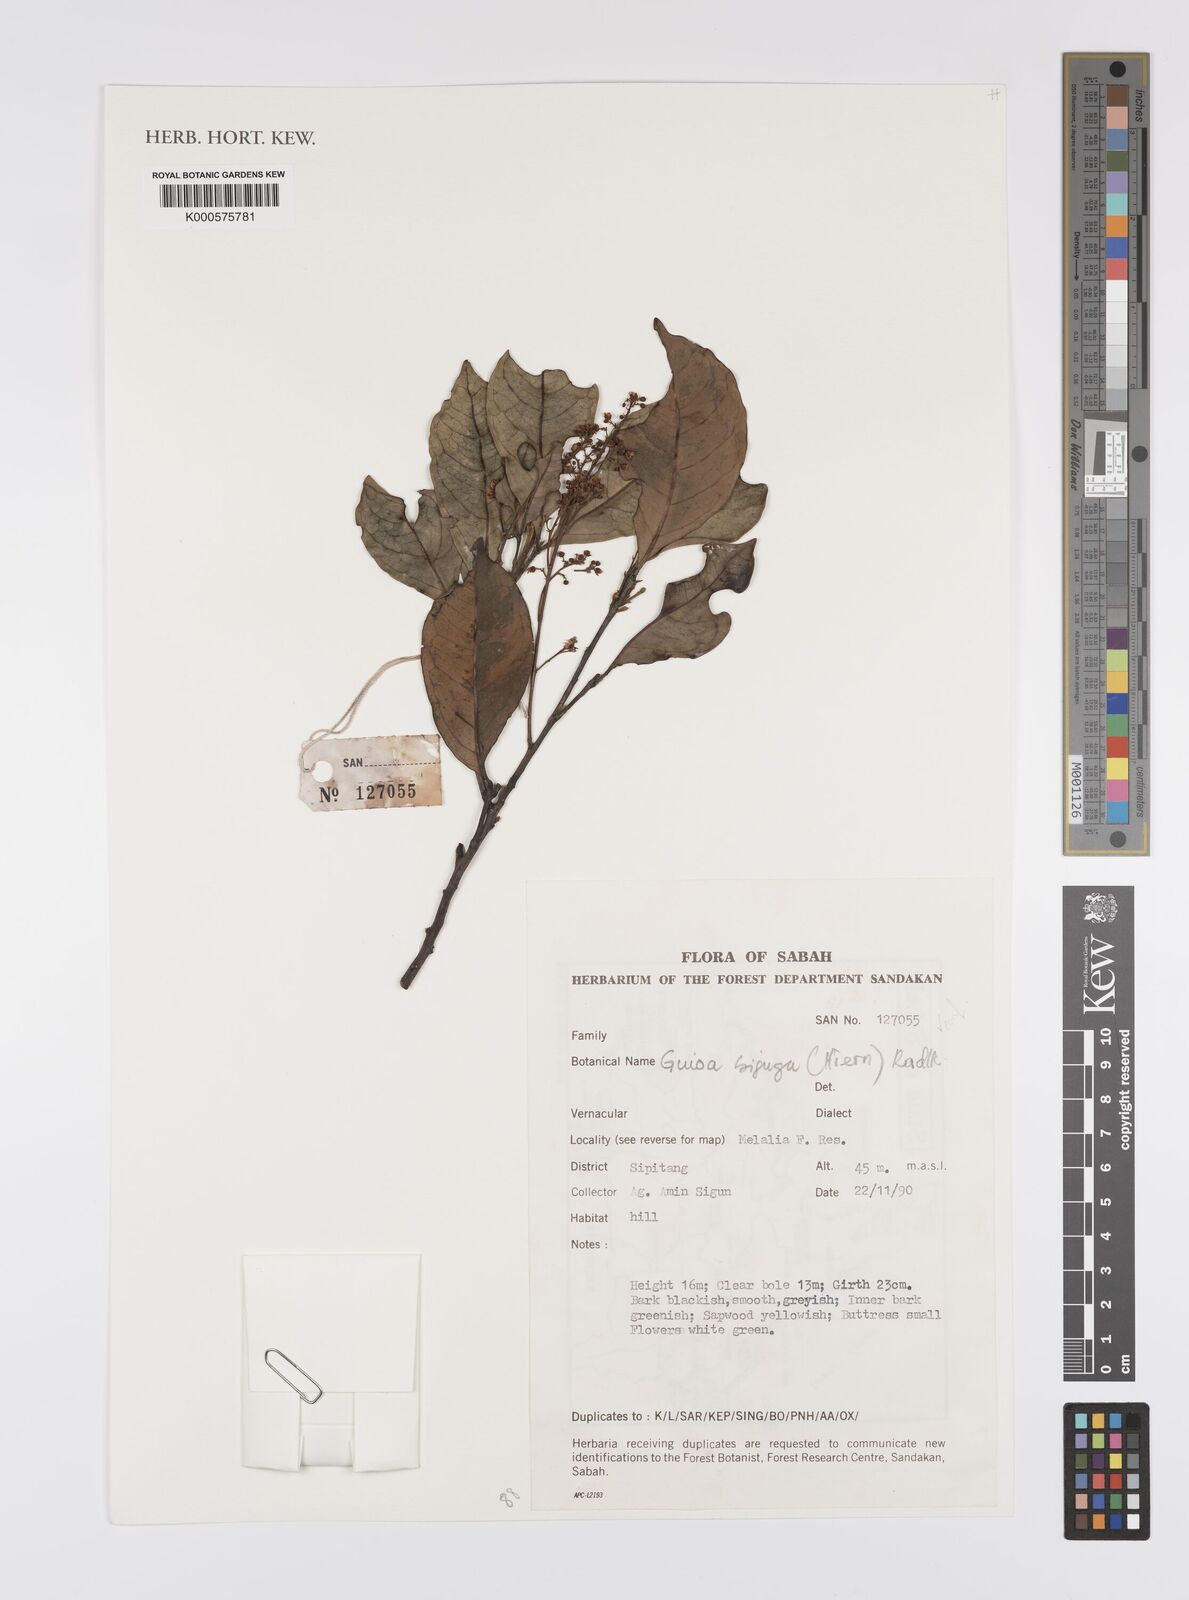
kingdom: Plantae
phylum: Tracheophyta
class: Magnoliopsida
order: Sapindales
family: Sapindaceae
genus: Guioa
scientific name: Guioa bijuga
